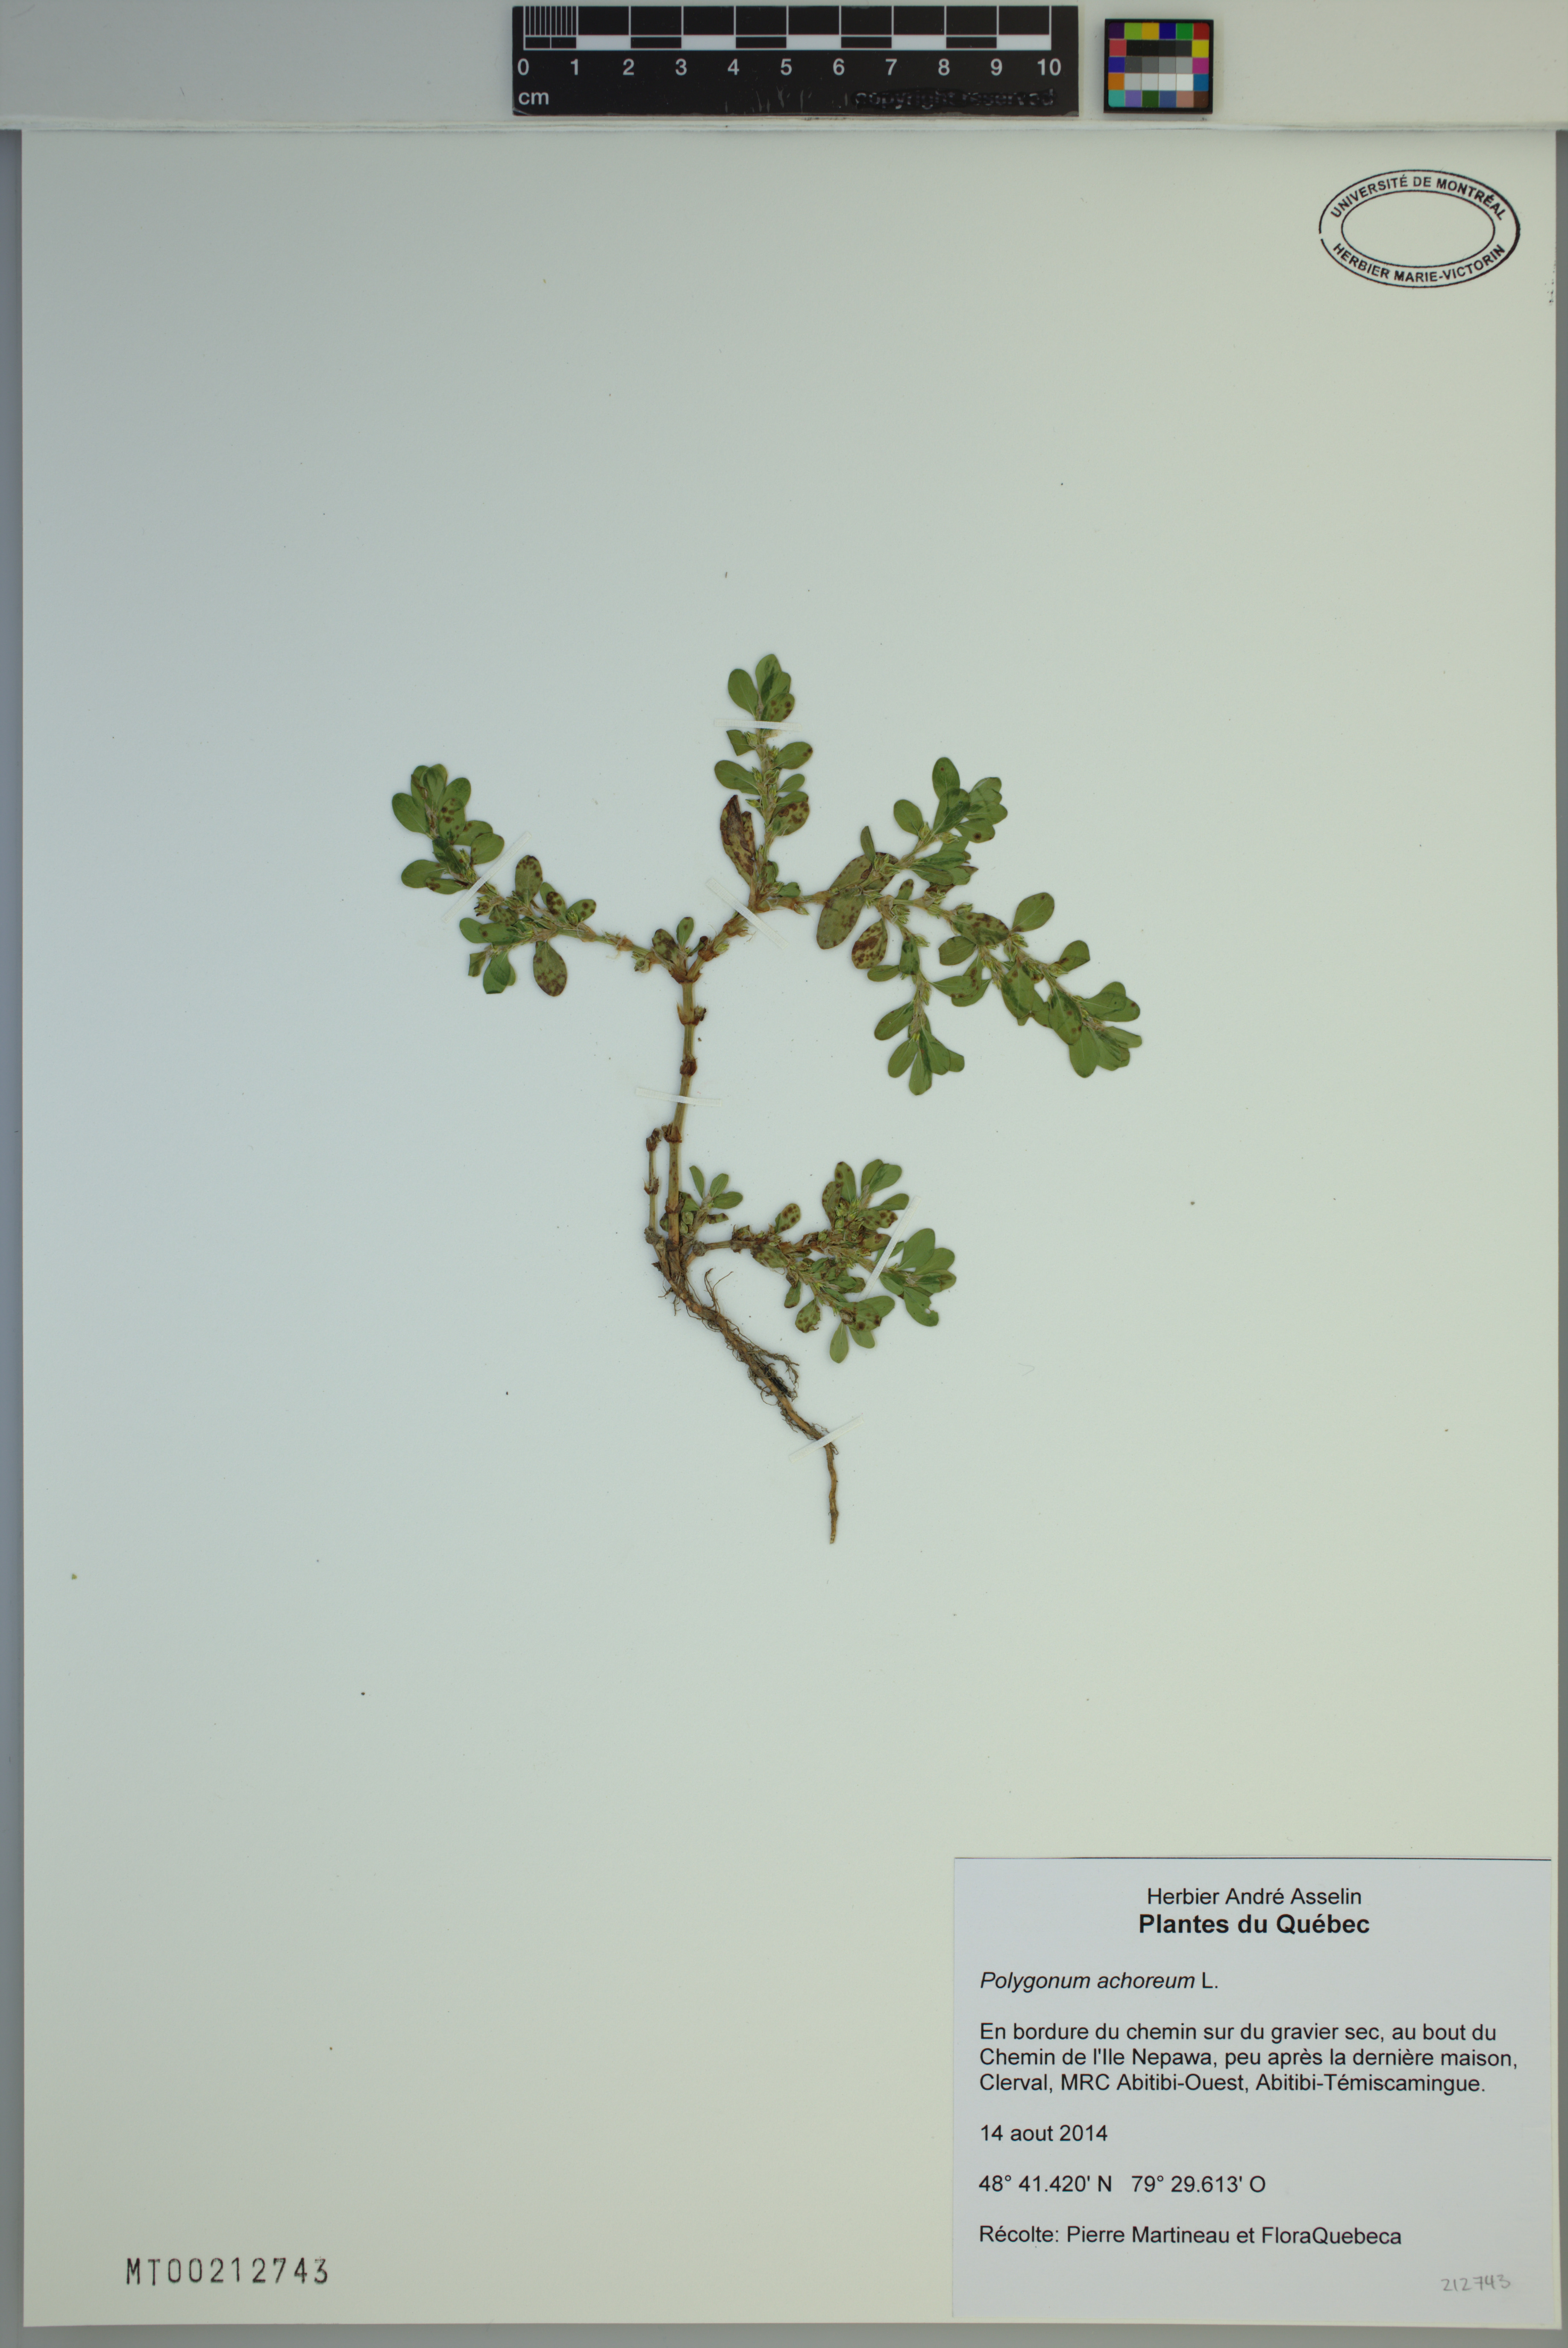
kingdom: Plantae
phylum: Tracheophyta
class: Magnoliopsida
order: Caryophyllales
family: Polygonaceae
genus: Polygonum
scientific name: Polygonum achoreum
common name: Striate knotweed
